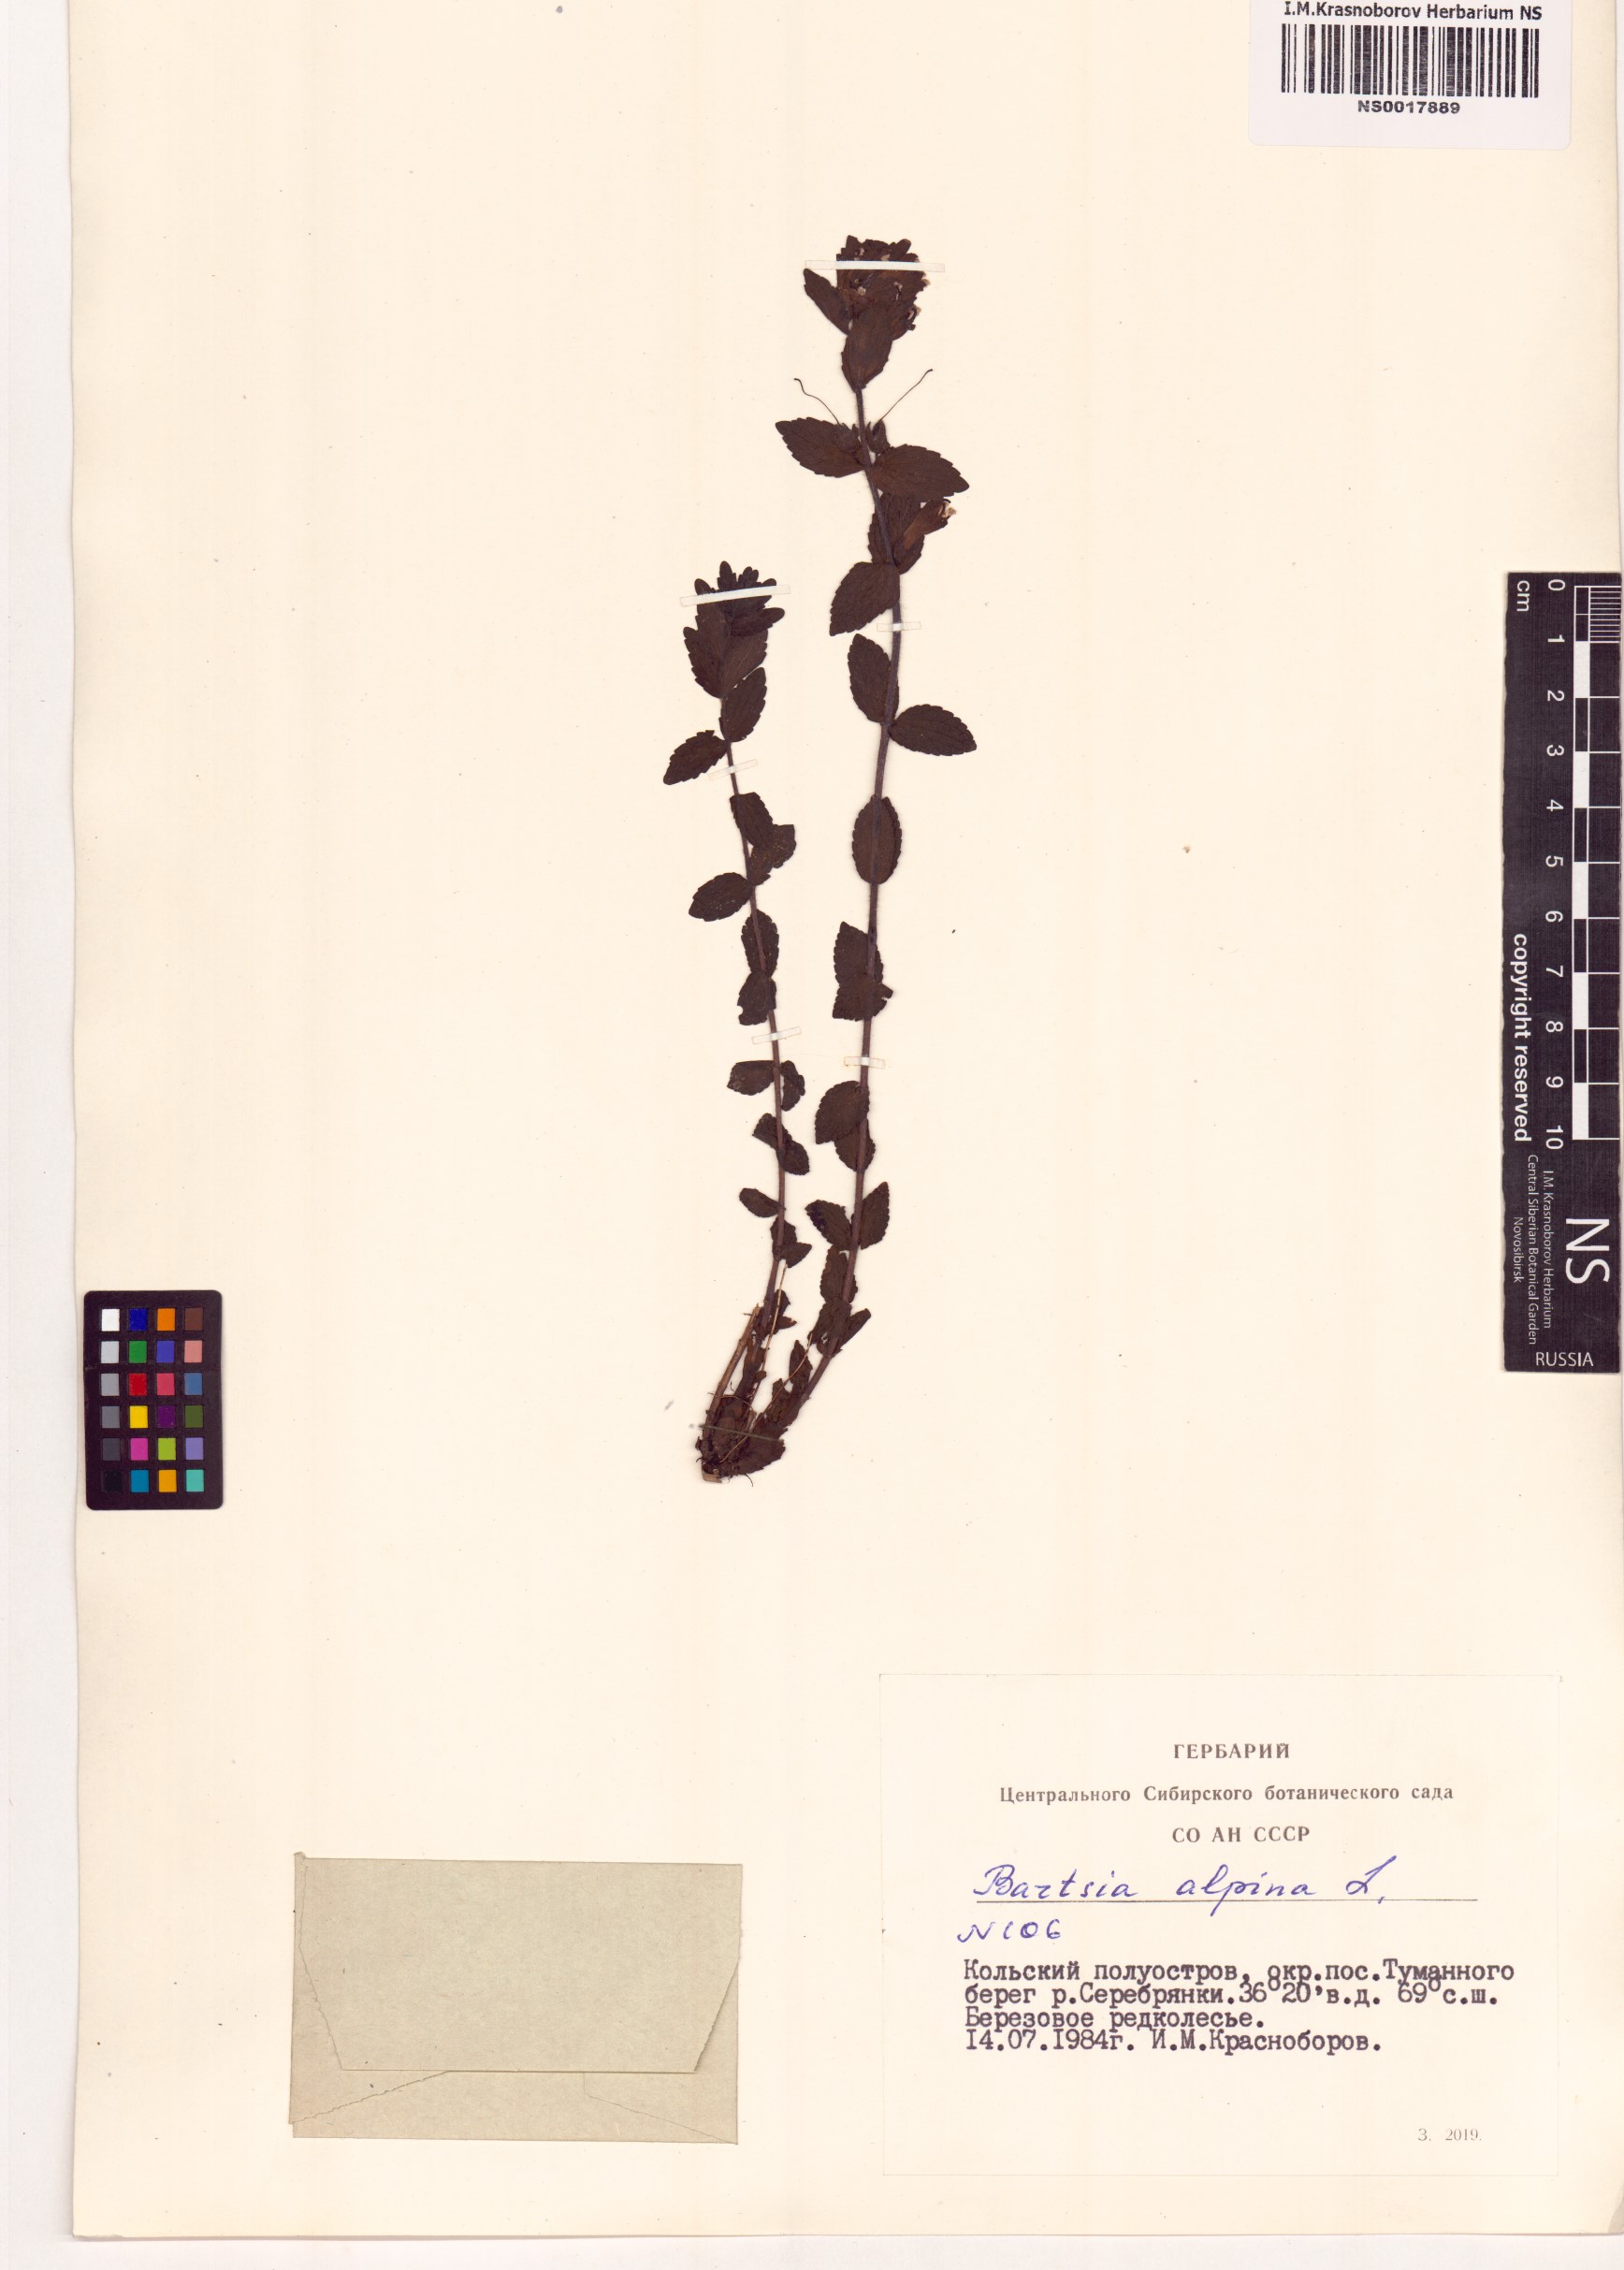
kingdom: Plantae
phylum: Tracheophyta
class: Magnoliopsida
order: Lamiales
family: Orobanchaceae
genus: Bartsia
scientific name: Bartsia alpina
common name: Alpine bartsia
